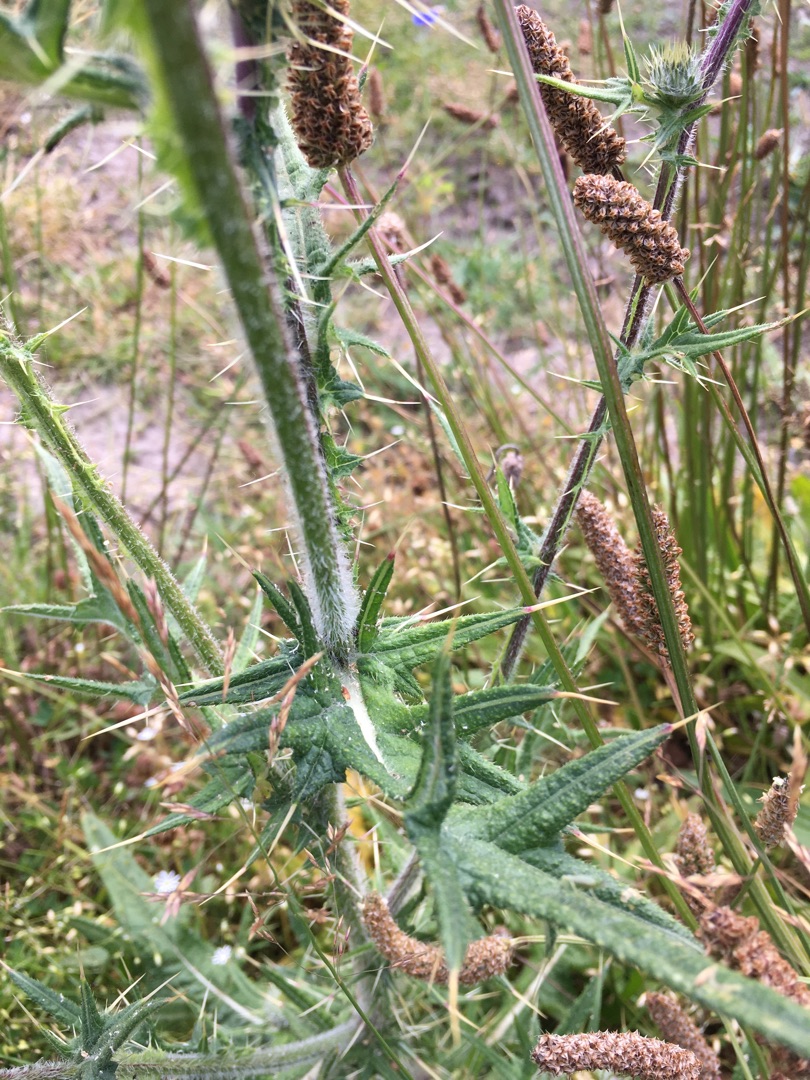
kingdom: Plantae
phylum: Tracheophyta
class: Magnoliopsida
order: Asterales
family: Asteraceae
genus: Cirsium
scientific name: Cirsium vulgare
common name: Horse-tidsel
